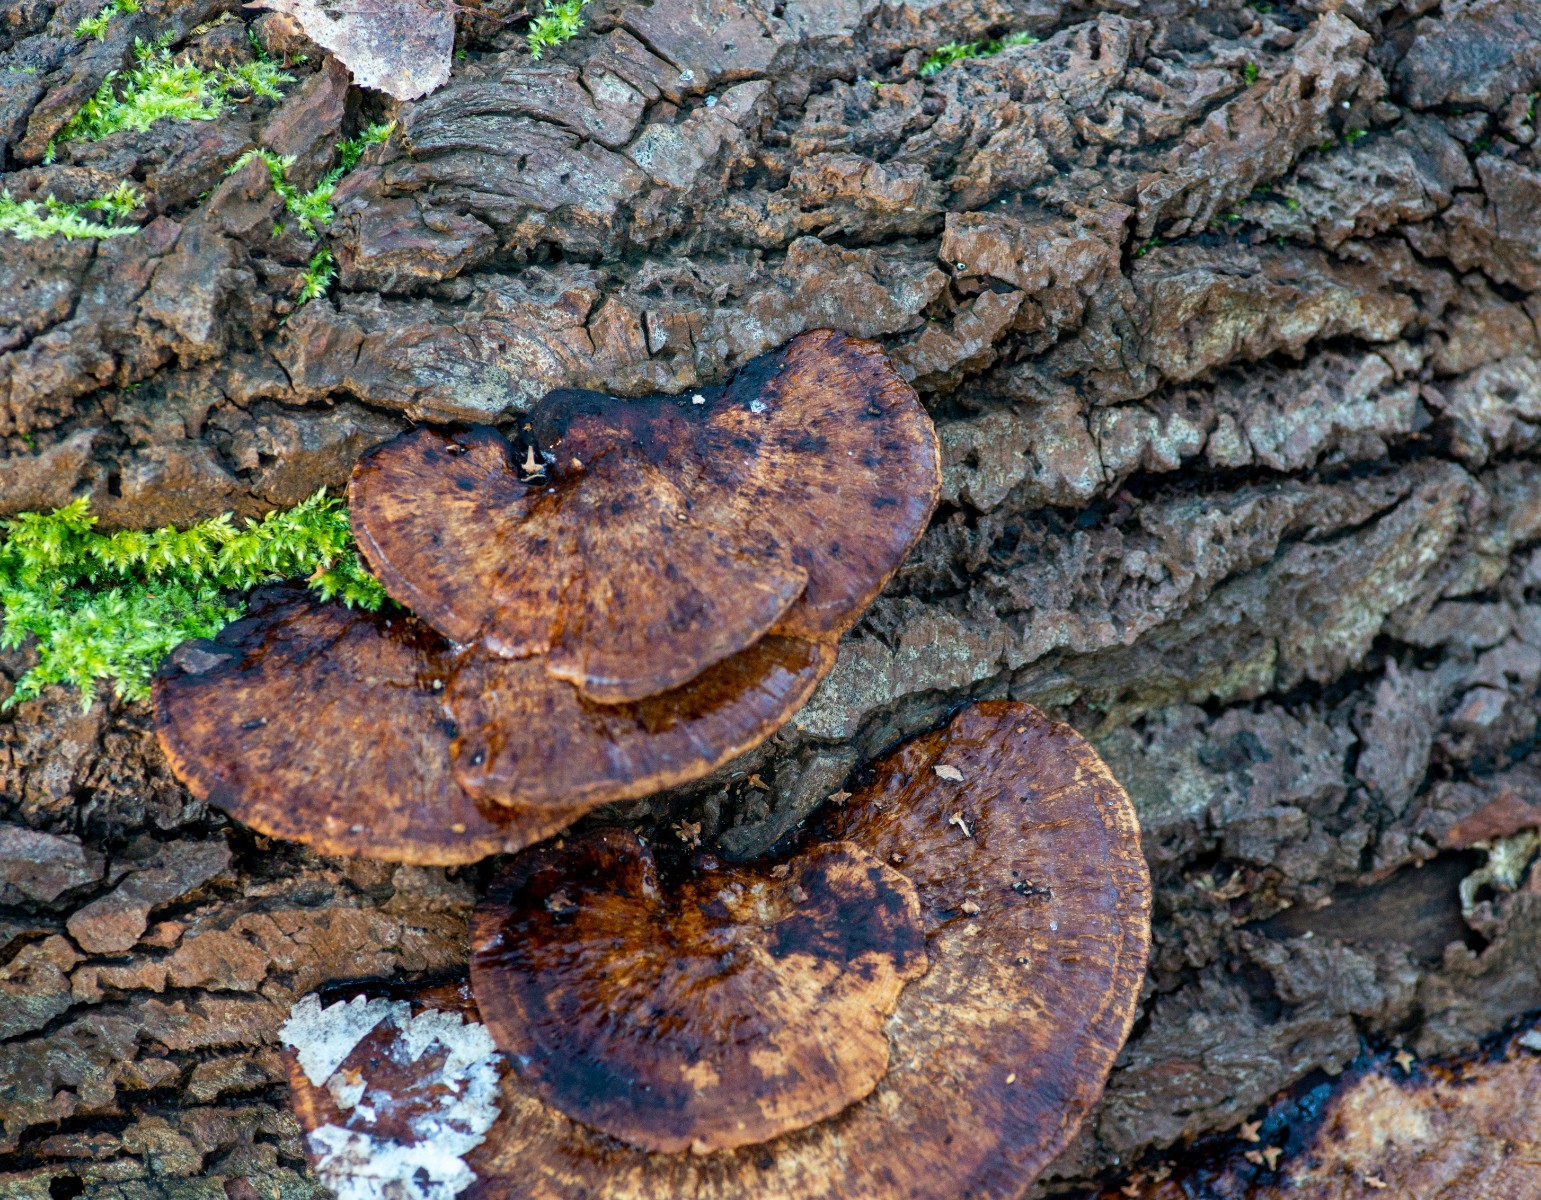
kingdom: Fungi
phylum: Basidiomycota
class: Agaricomycetes
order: Polyporales
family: Polyporaceae
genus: Daedaleopsis
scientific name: Daedaleopsis confragosa
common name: rødmende læderporesvamp
